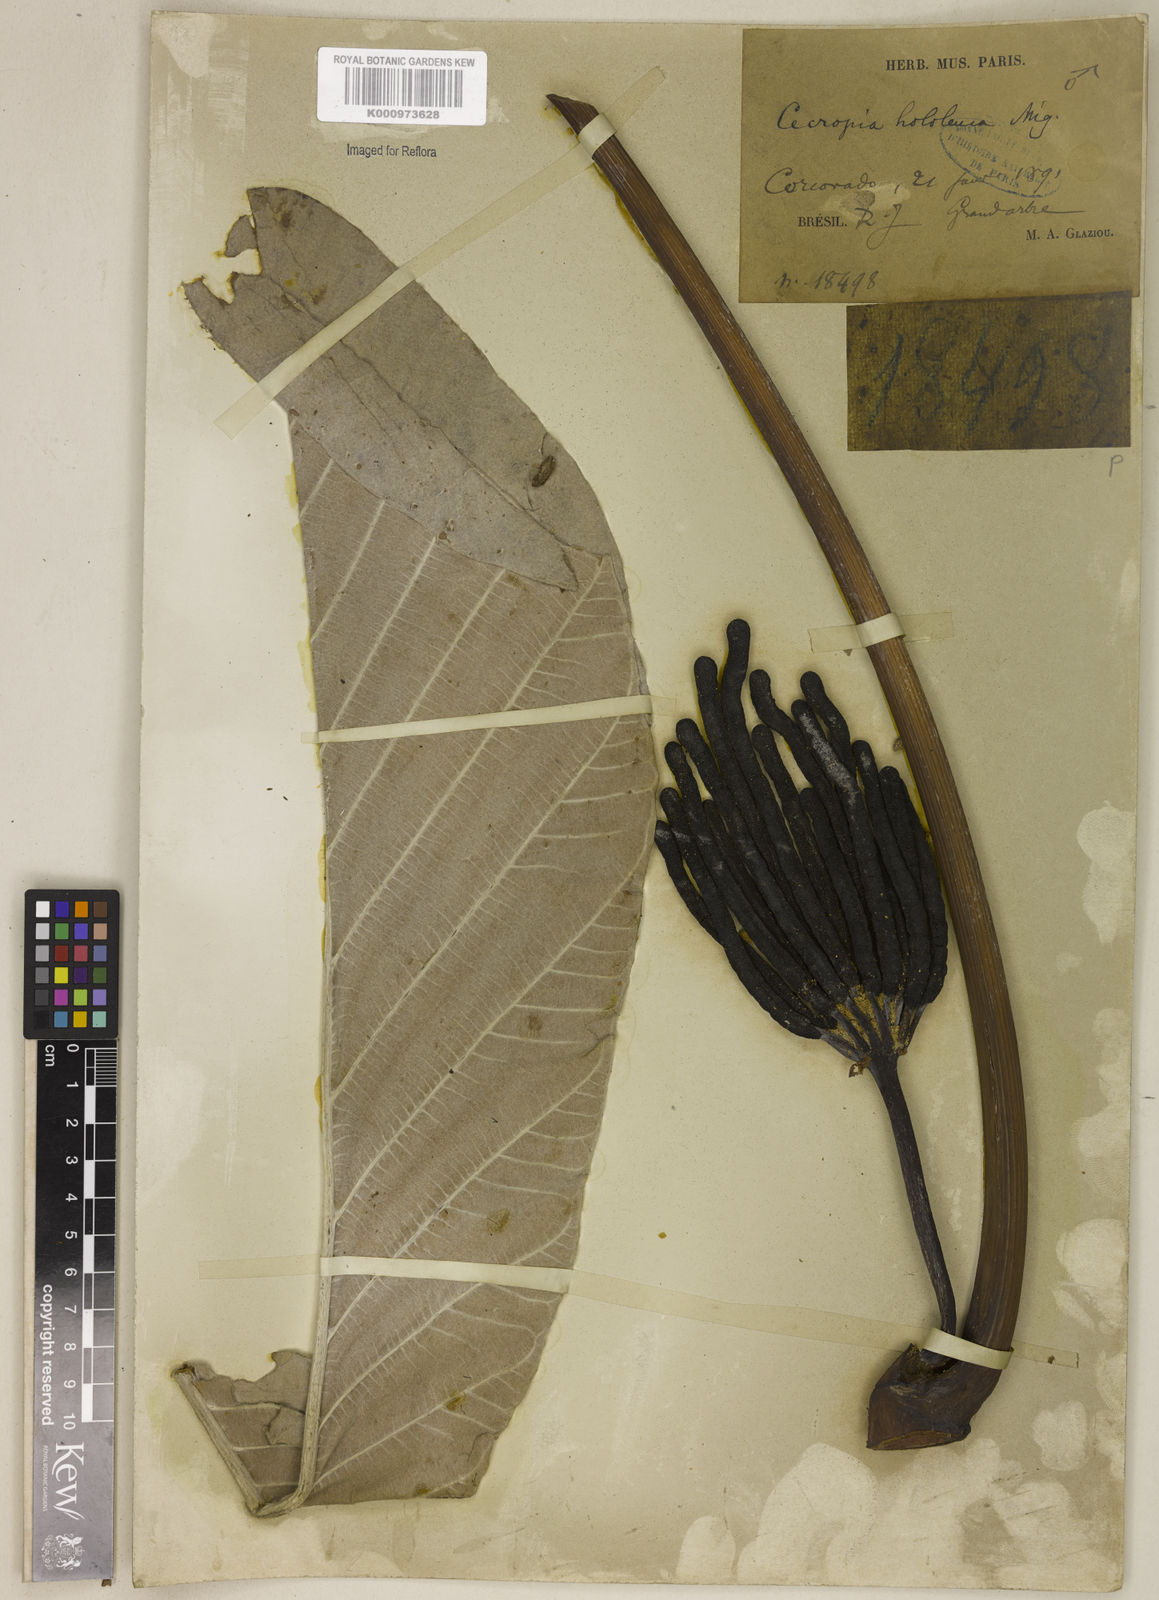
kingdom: Plantae
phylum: Tracheophyta
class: Magnoliopsida
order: Rosales
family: Urticaceae
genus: Cecropia
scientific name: Cecropia hololeuca
